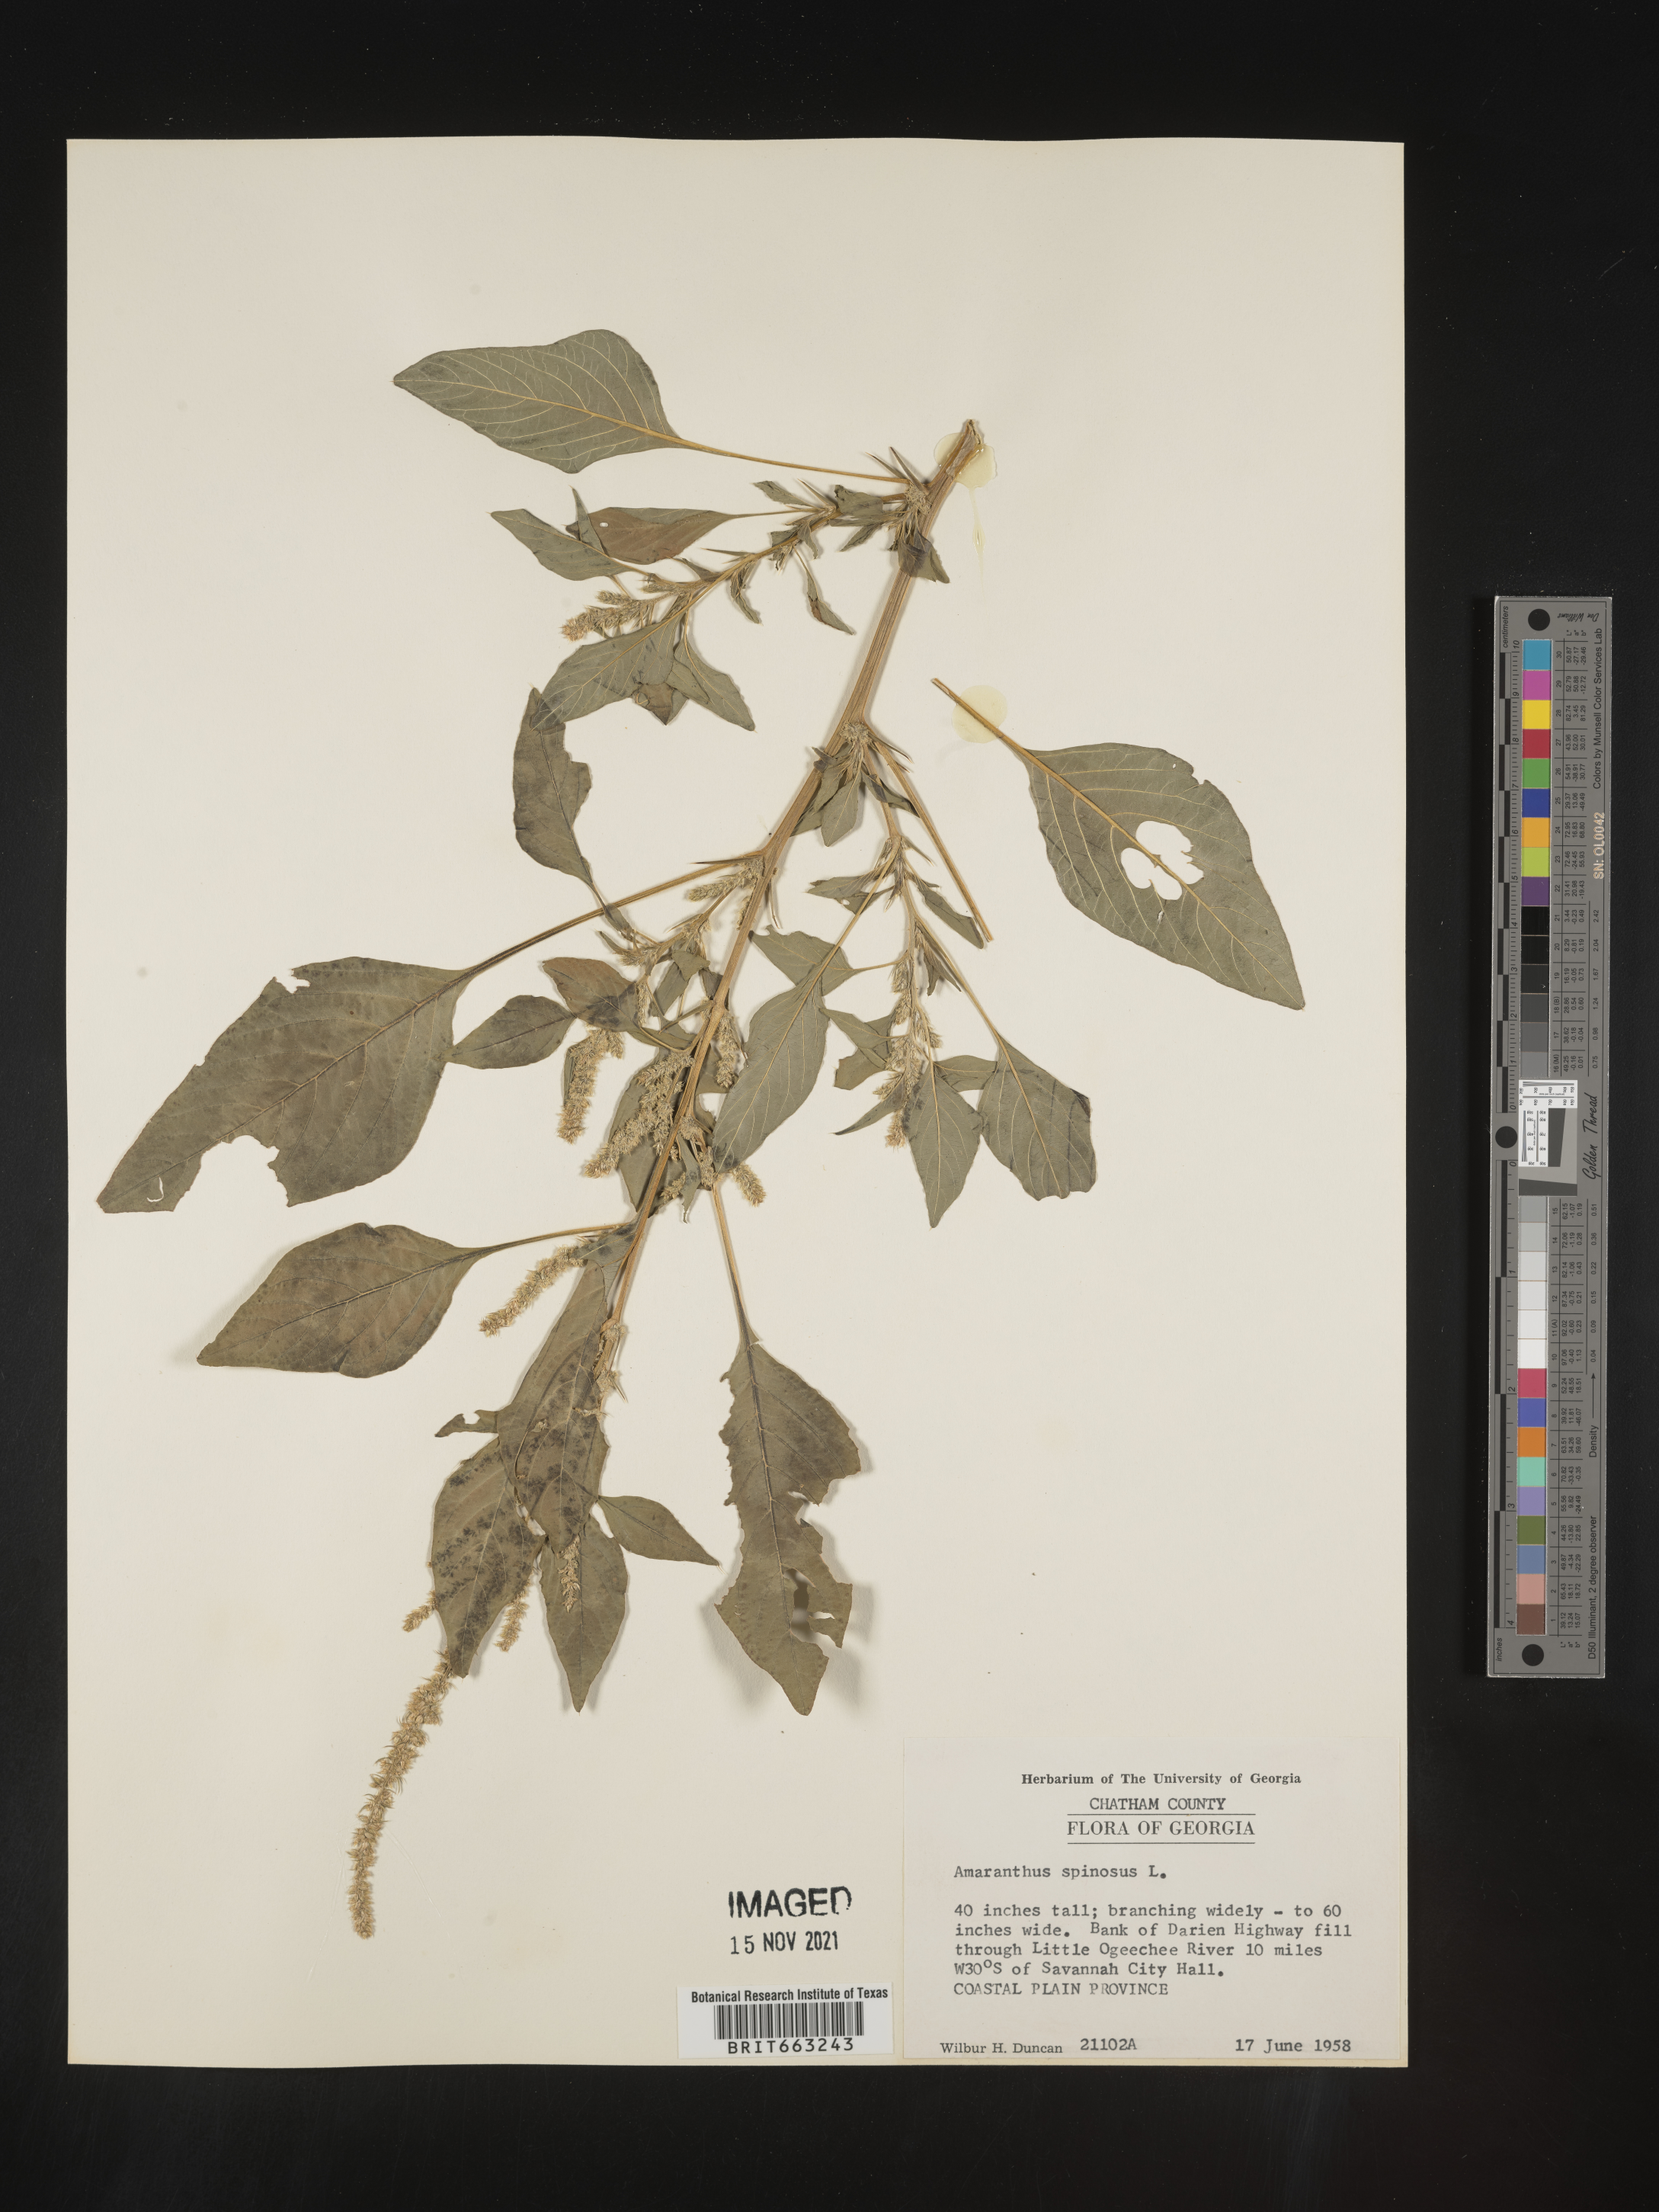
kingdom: Plantae
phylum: Tracheophyta
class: Magnoliopsida
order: Caryophyllales
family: Amaranthaceae
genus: Amaranthus
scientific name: Amaranthus spinosus
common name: Spiny amaranth
